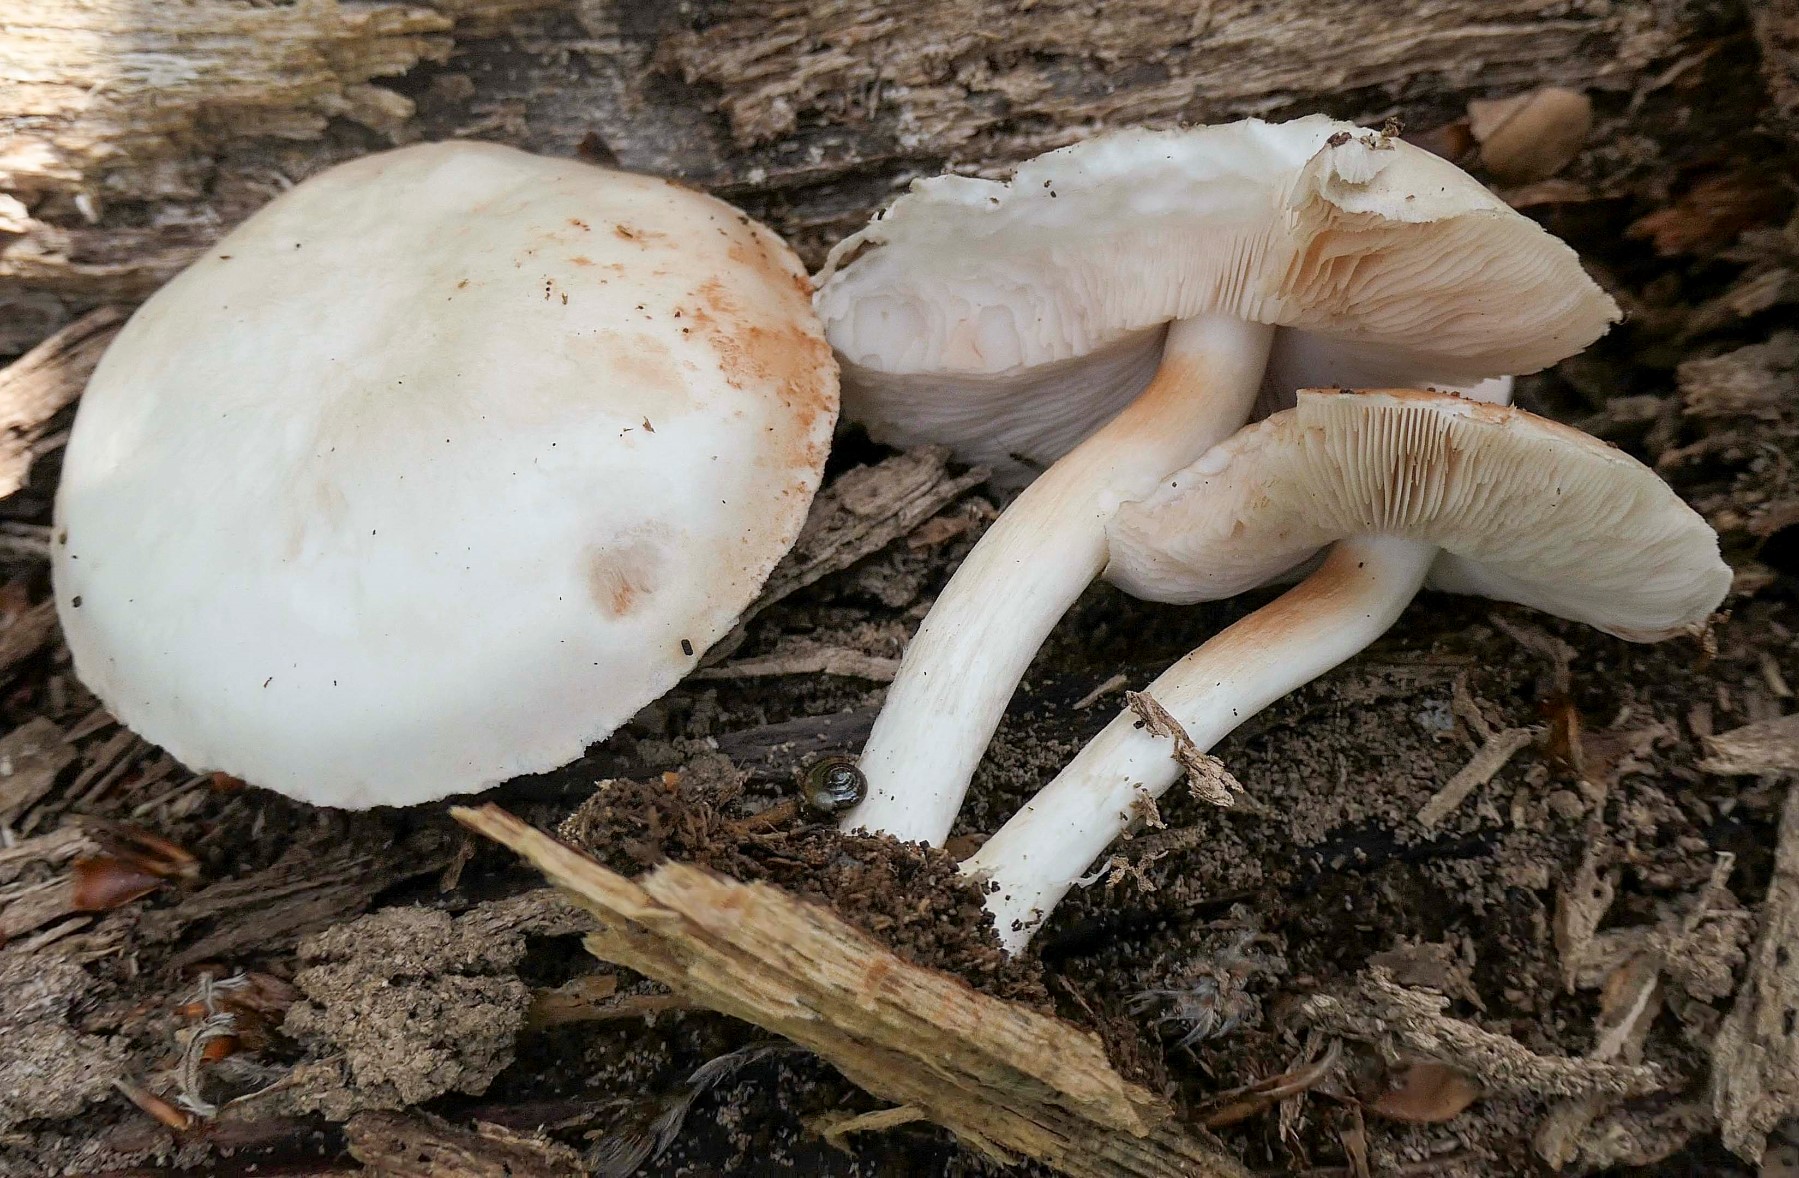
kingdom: Fungi
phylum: Basidiomycota
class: Agaricomycetes
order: Agaricales
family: Pluteaceae
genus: Pluteus
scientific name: Pluteus
